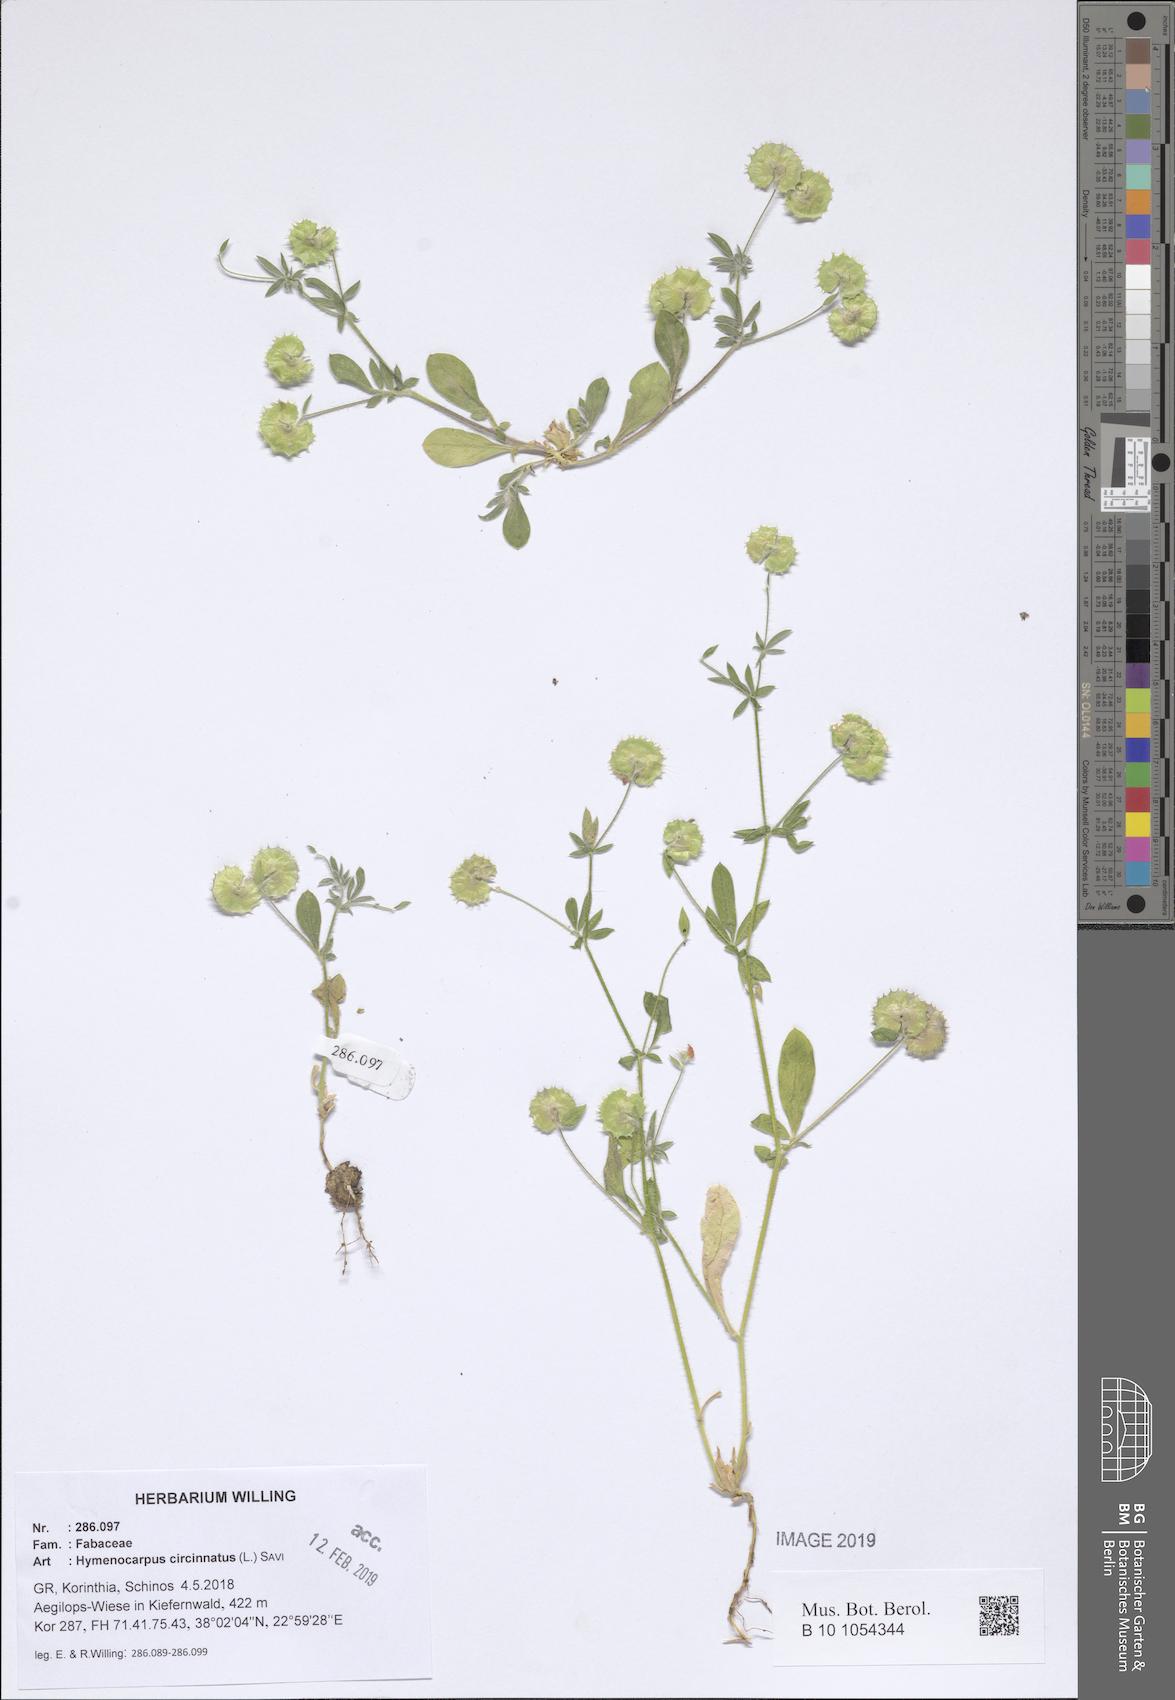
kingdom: Plantae
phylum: Tracheophyta
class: Magnoliopsida
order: Fabales
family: Fabaceae
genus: Anthyllis
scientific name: Anthyllis circinnata
